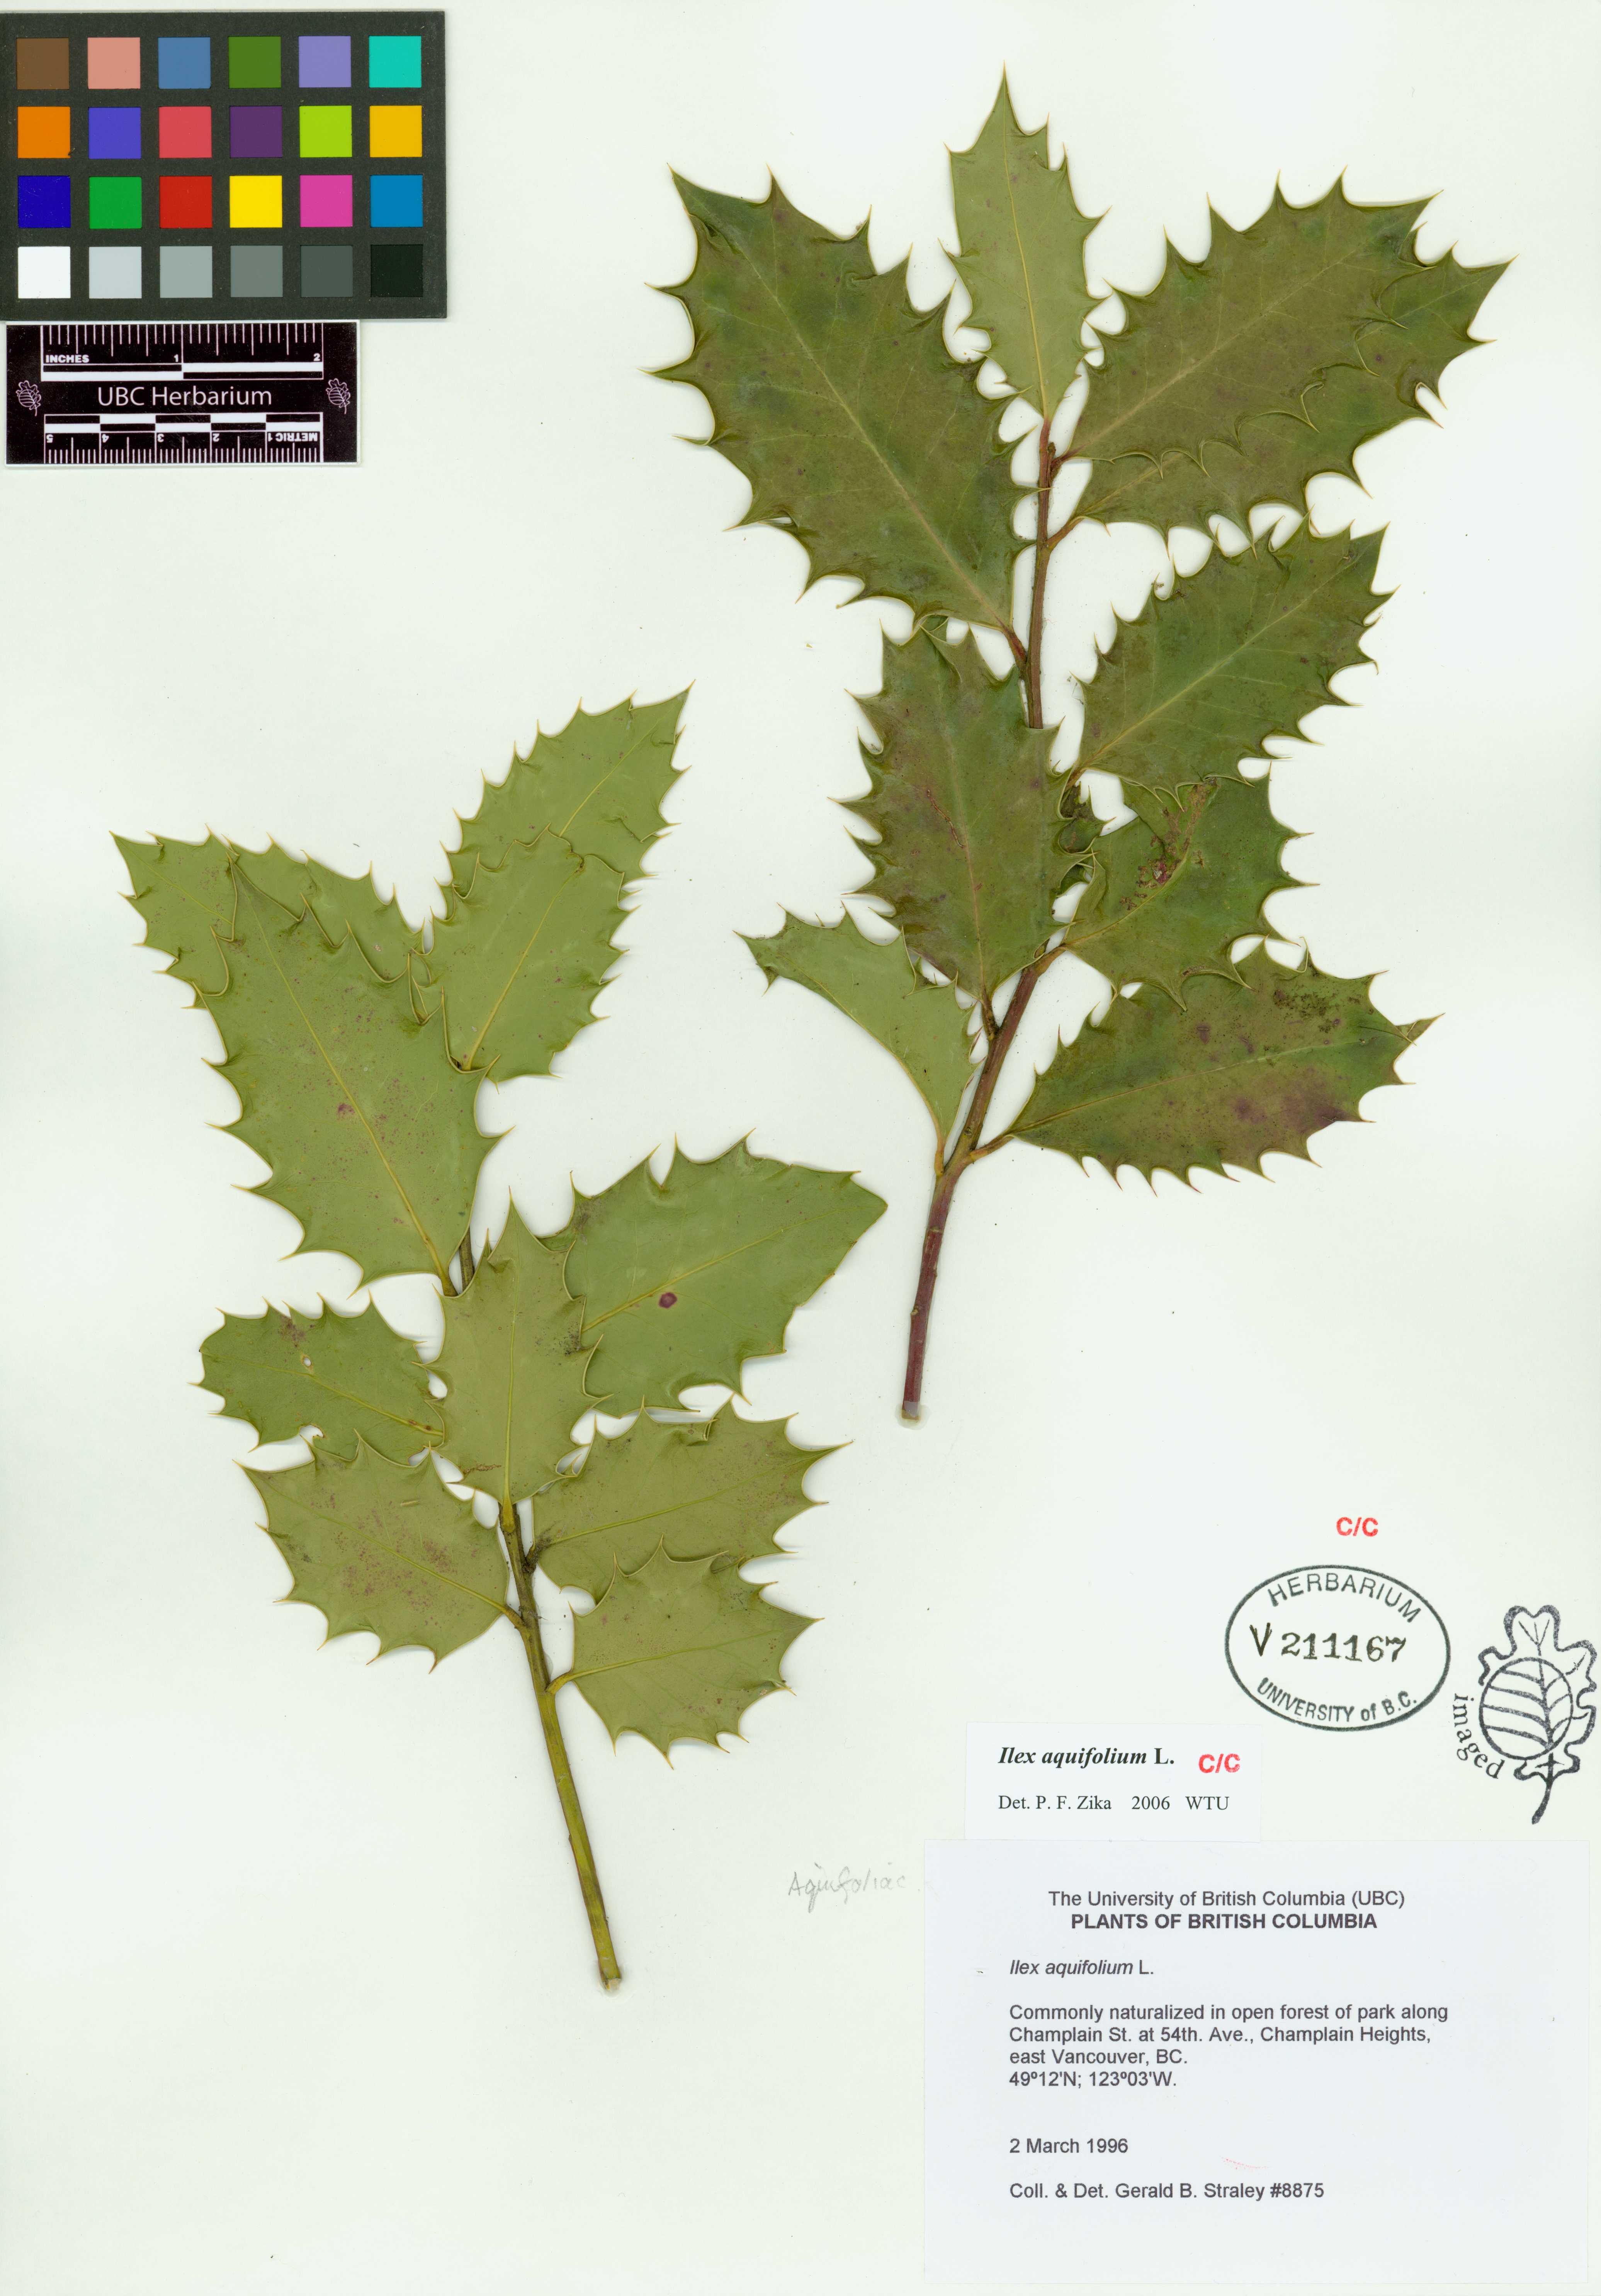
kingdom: Plantae
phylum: Tracheophyta
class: Magnoliopsida
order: Aquifoliales
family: Aquifoliaceae
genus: Ilex
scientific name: Ilex aquifolium
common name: English holly
